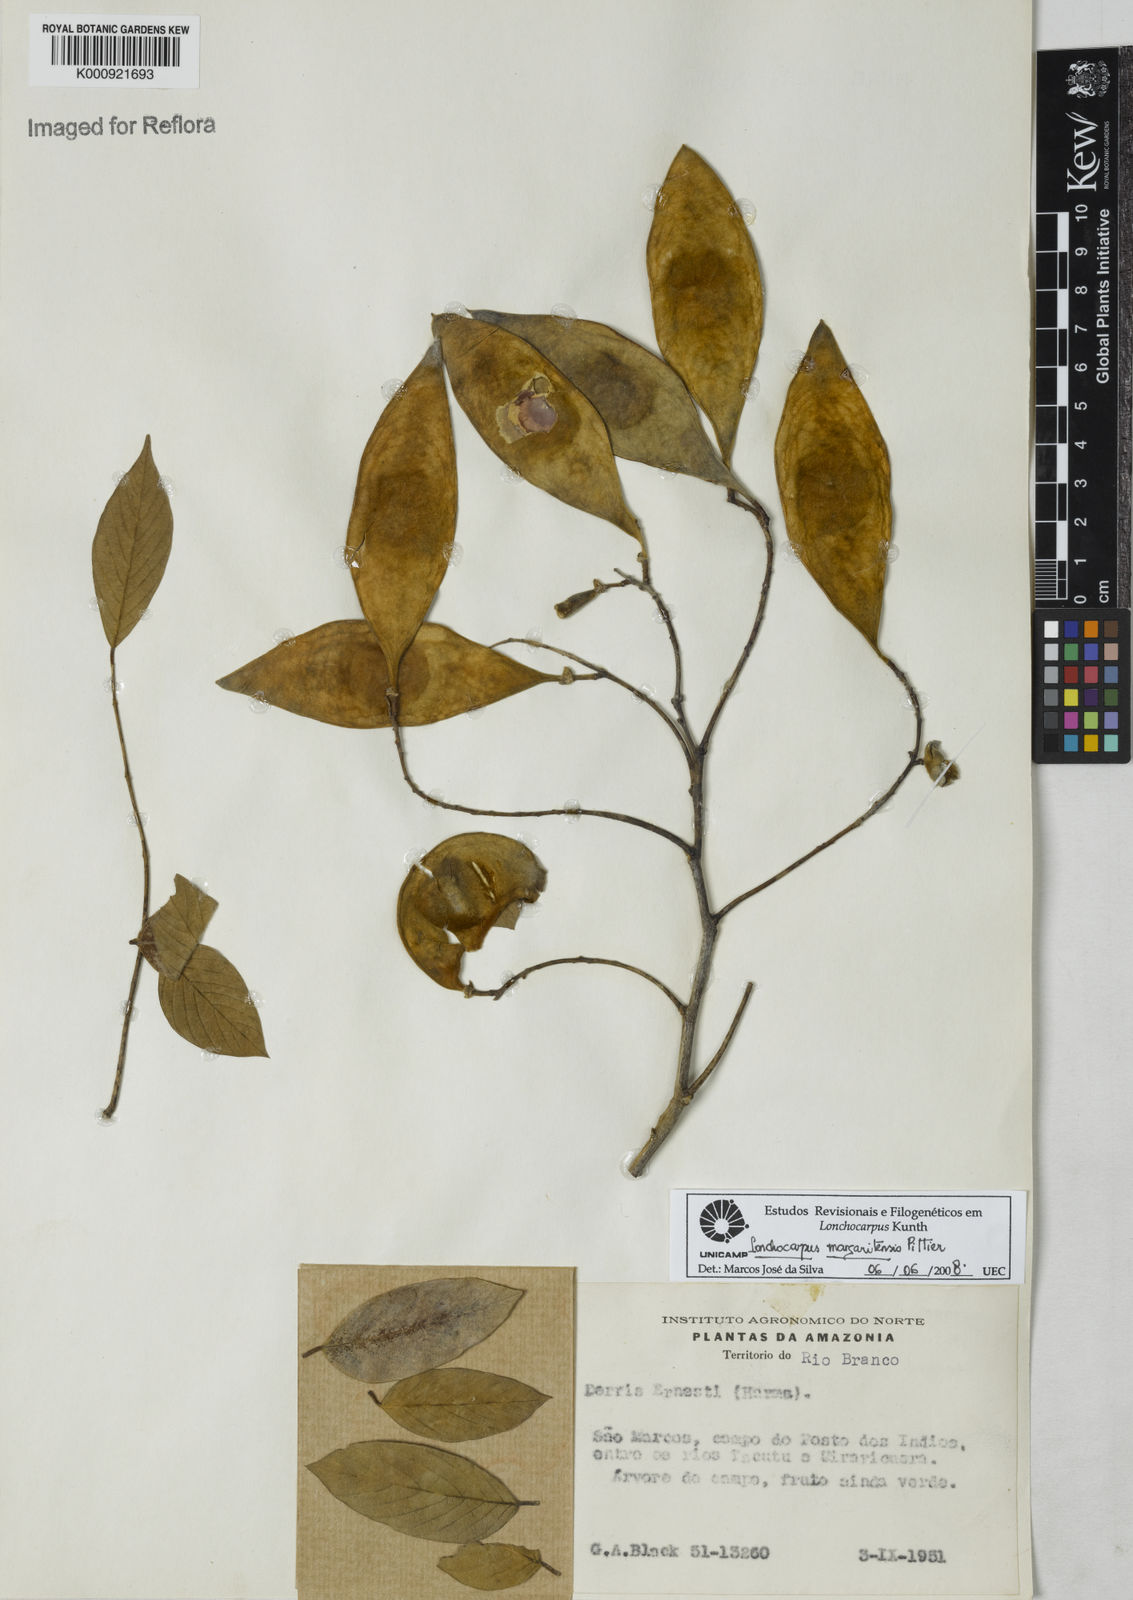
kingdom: Plantae
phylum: Tracheophyta
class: Magnoliopsida
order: Fabales
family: Fabaceae
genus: Lonchocarpus
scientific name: Lonchocarpus hedyosmus
